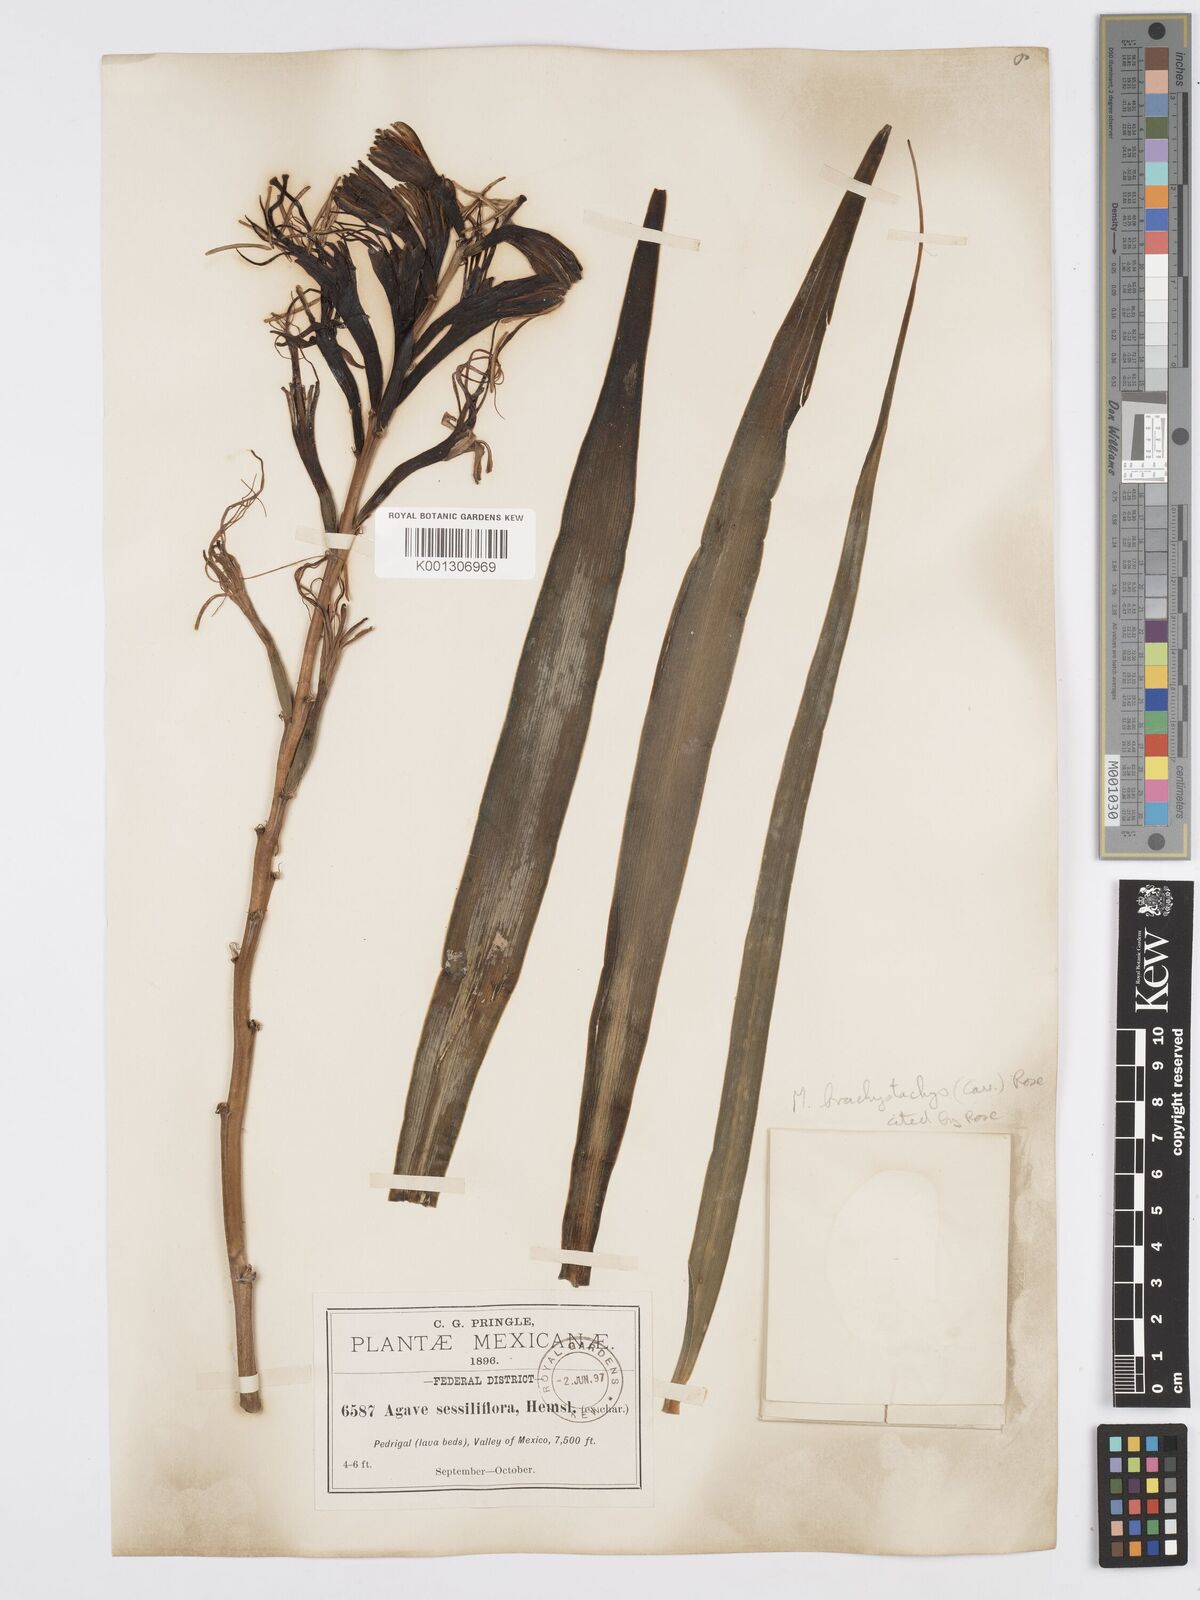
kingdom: Plantae
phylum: Tracheophyta
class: Liliopsida
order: Asparagales
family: Asparagaceae
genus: Agave
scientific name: Agave scabra
